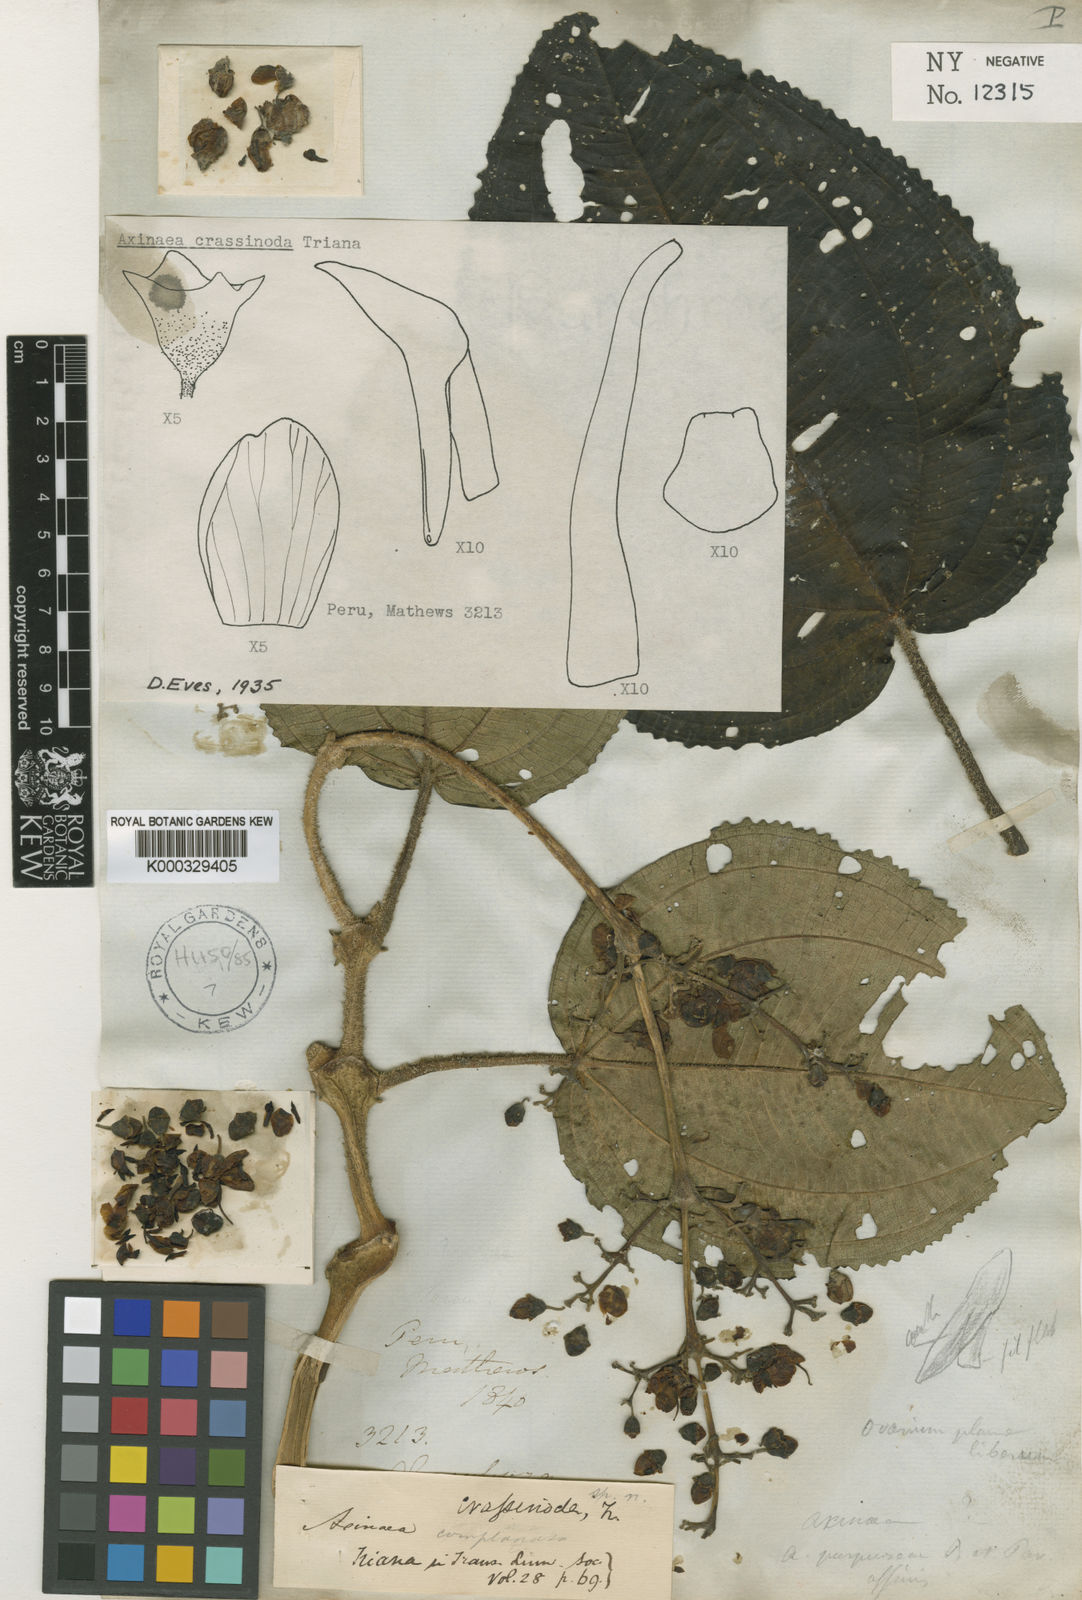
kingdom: Plantae
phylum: Tracheophyta
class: Magnoliopsida
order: Myrtales
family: Melastomataceae
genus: Axinaea
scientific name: Axinaea crassinoda
